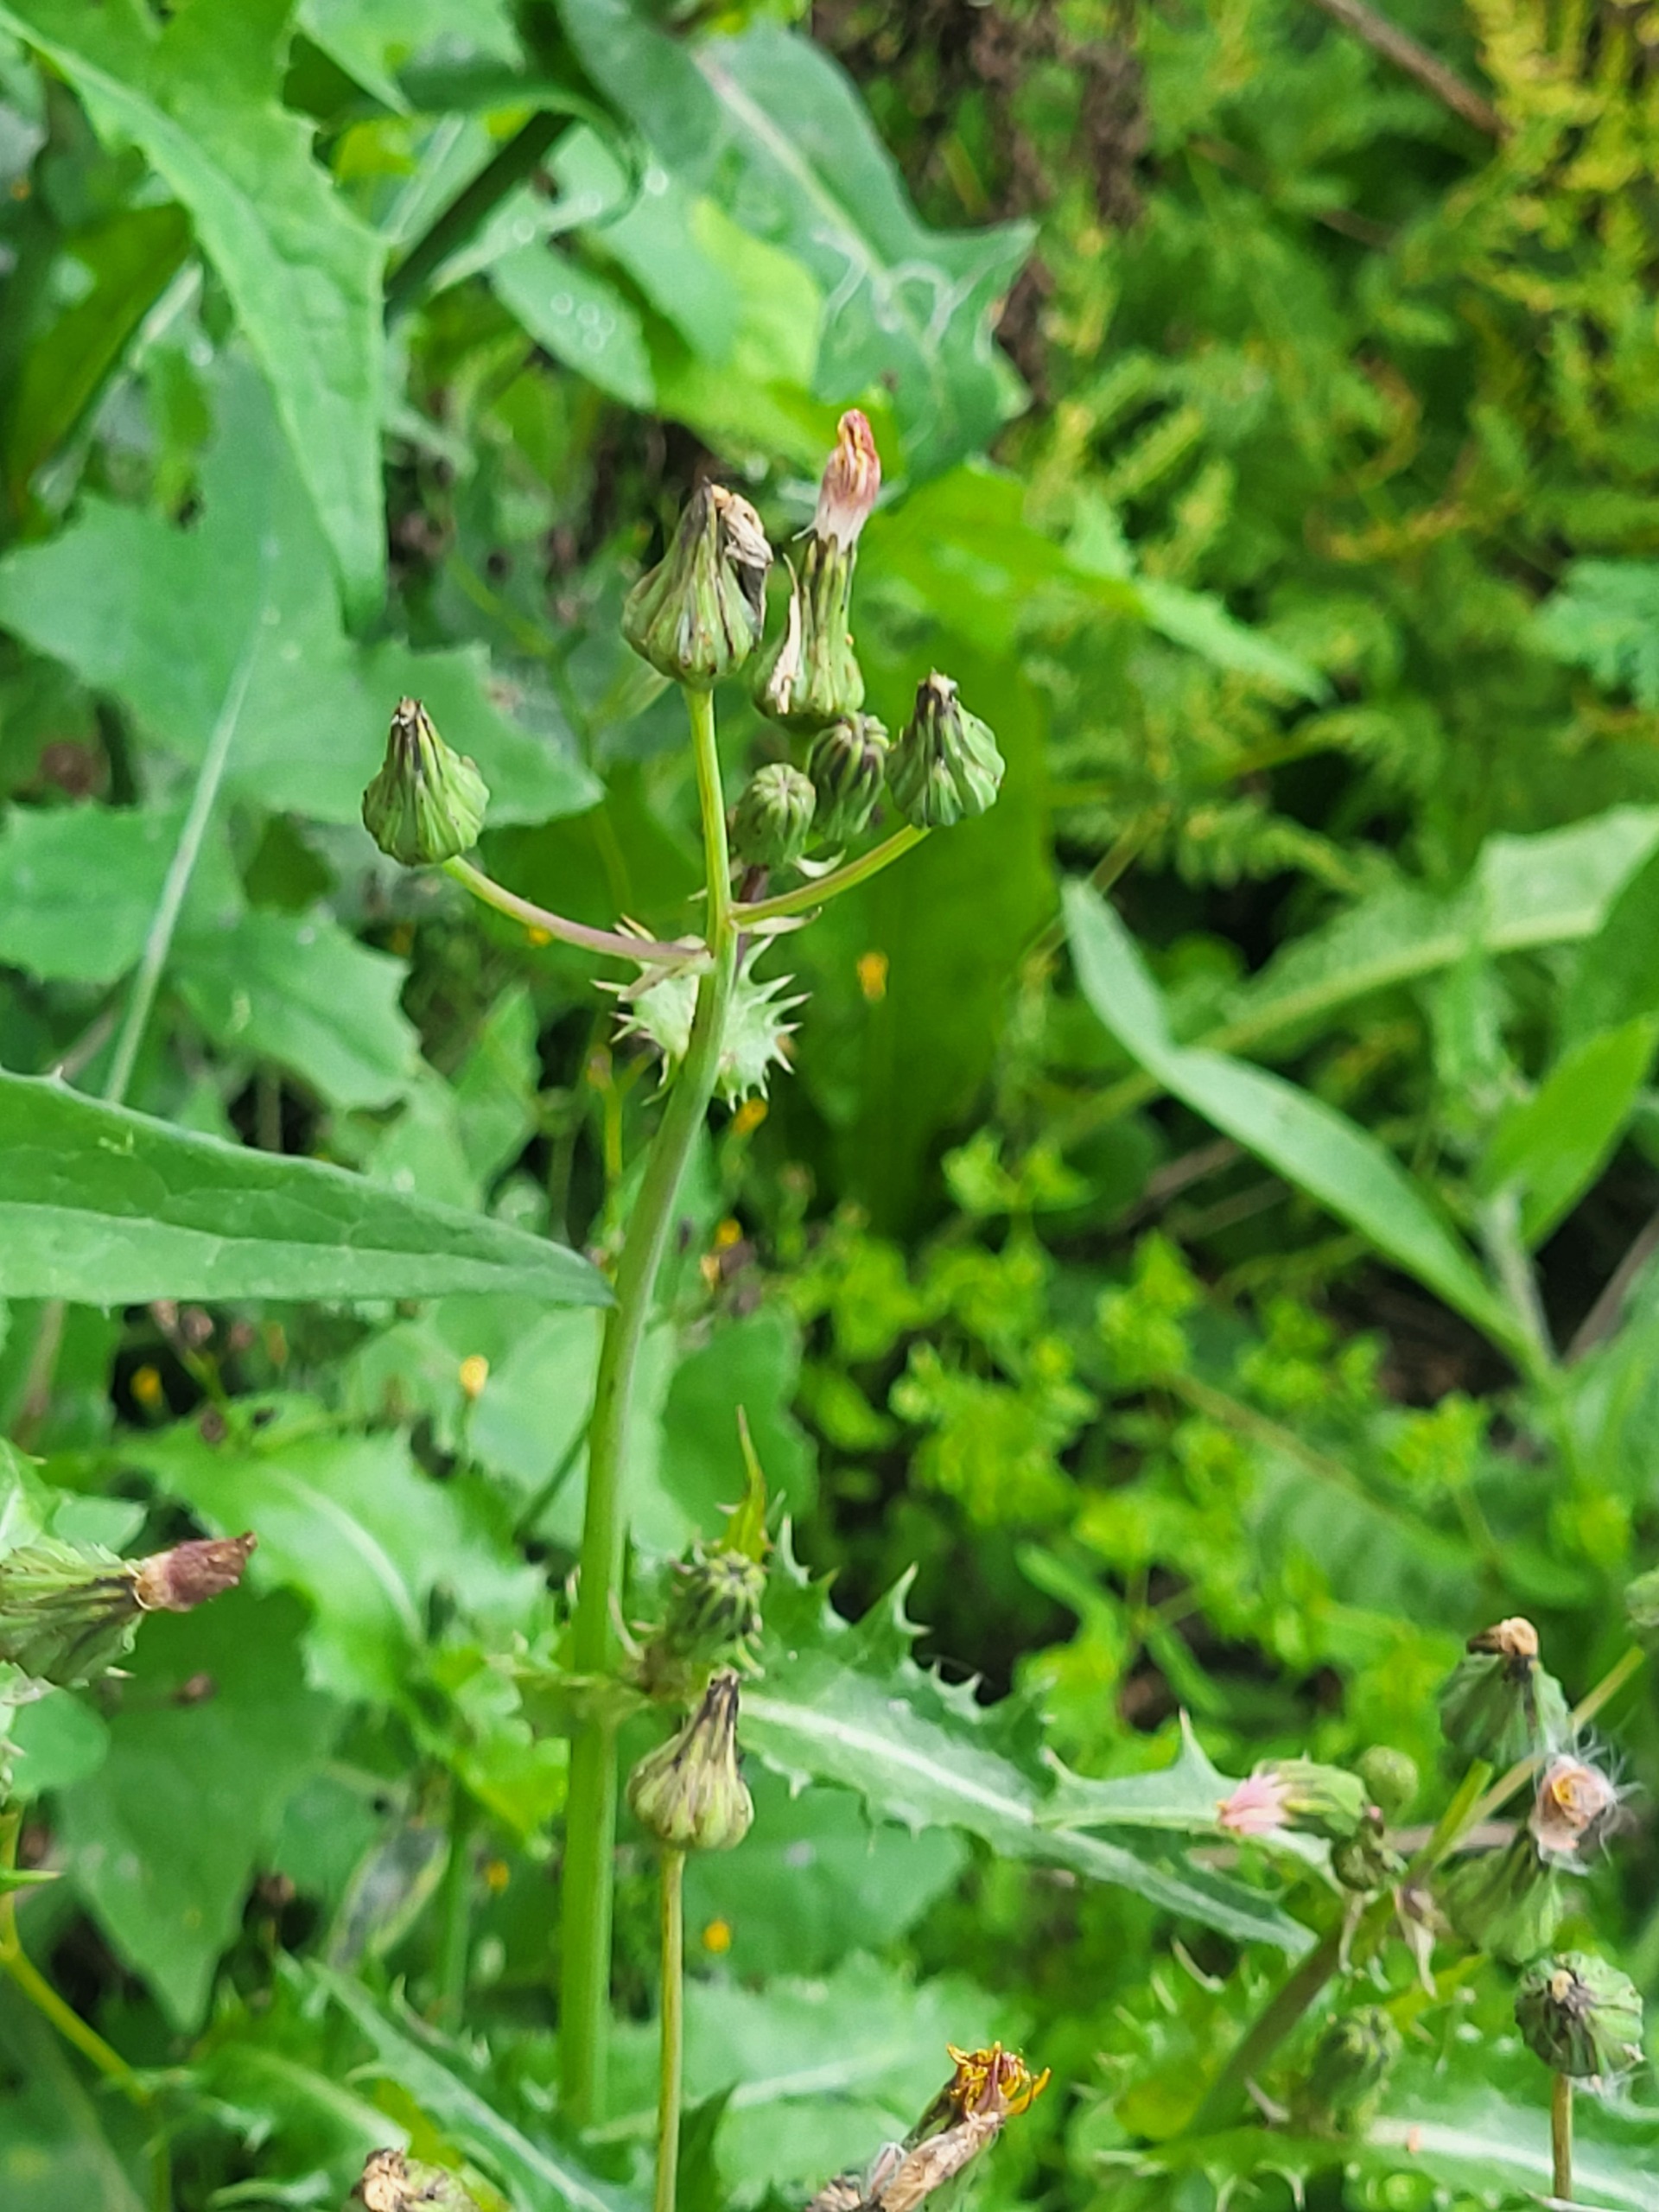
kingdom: Plantae
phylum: Tracheophyta
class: Magnoliopsida
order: Asterales
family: Asteraceae
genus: Sonchus
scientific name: Sonchus asper
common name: Ru svinemælk
